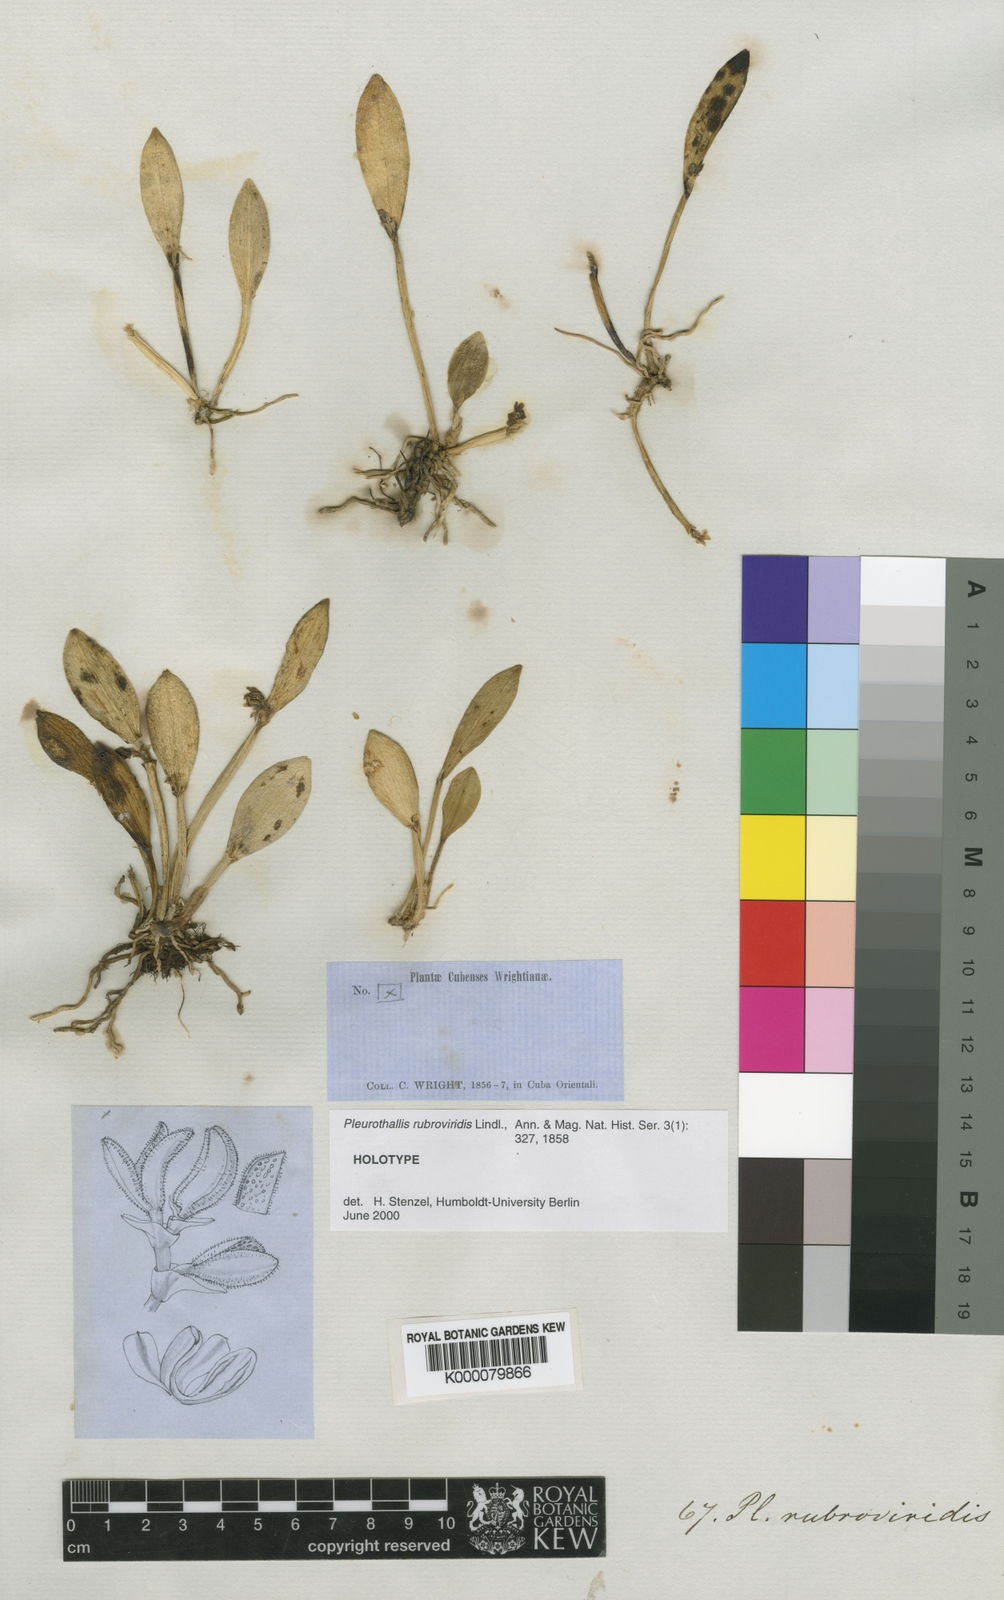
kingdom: Plantae
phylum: Tracheophyta
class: Liliopsida
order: Asparagales
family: Orchidaceae
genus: Acianthera
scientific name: Acianthera rubroviridis
